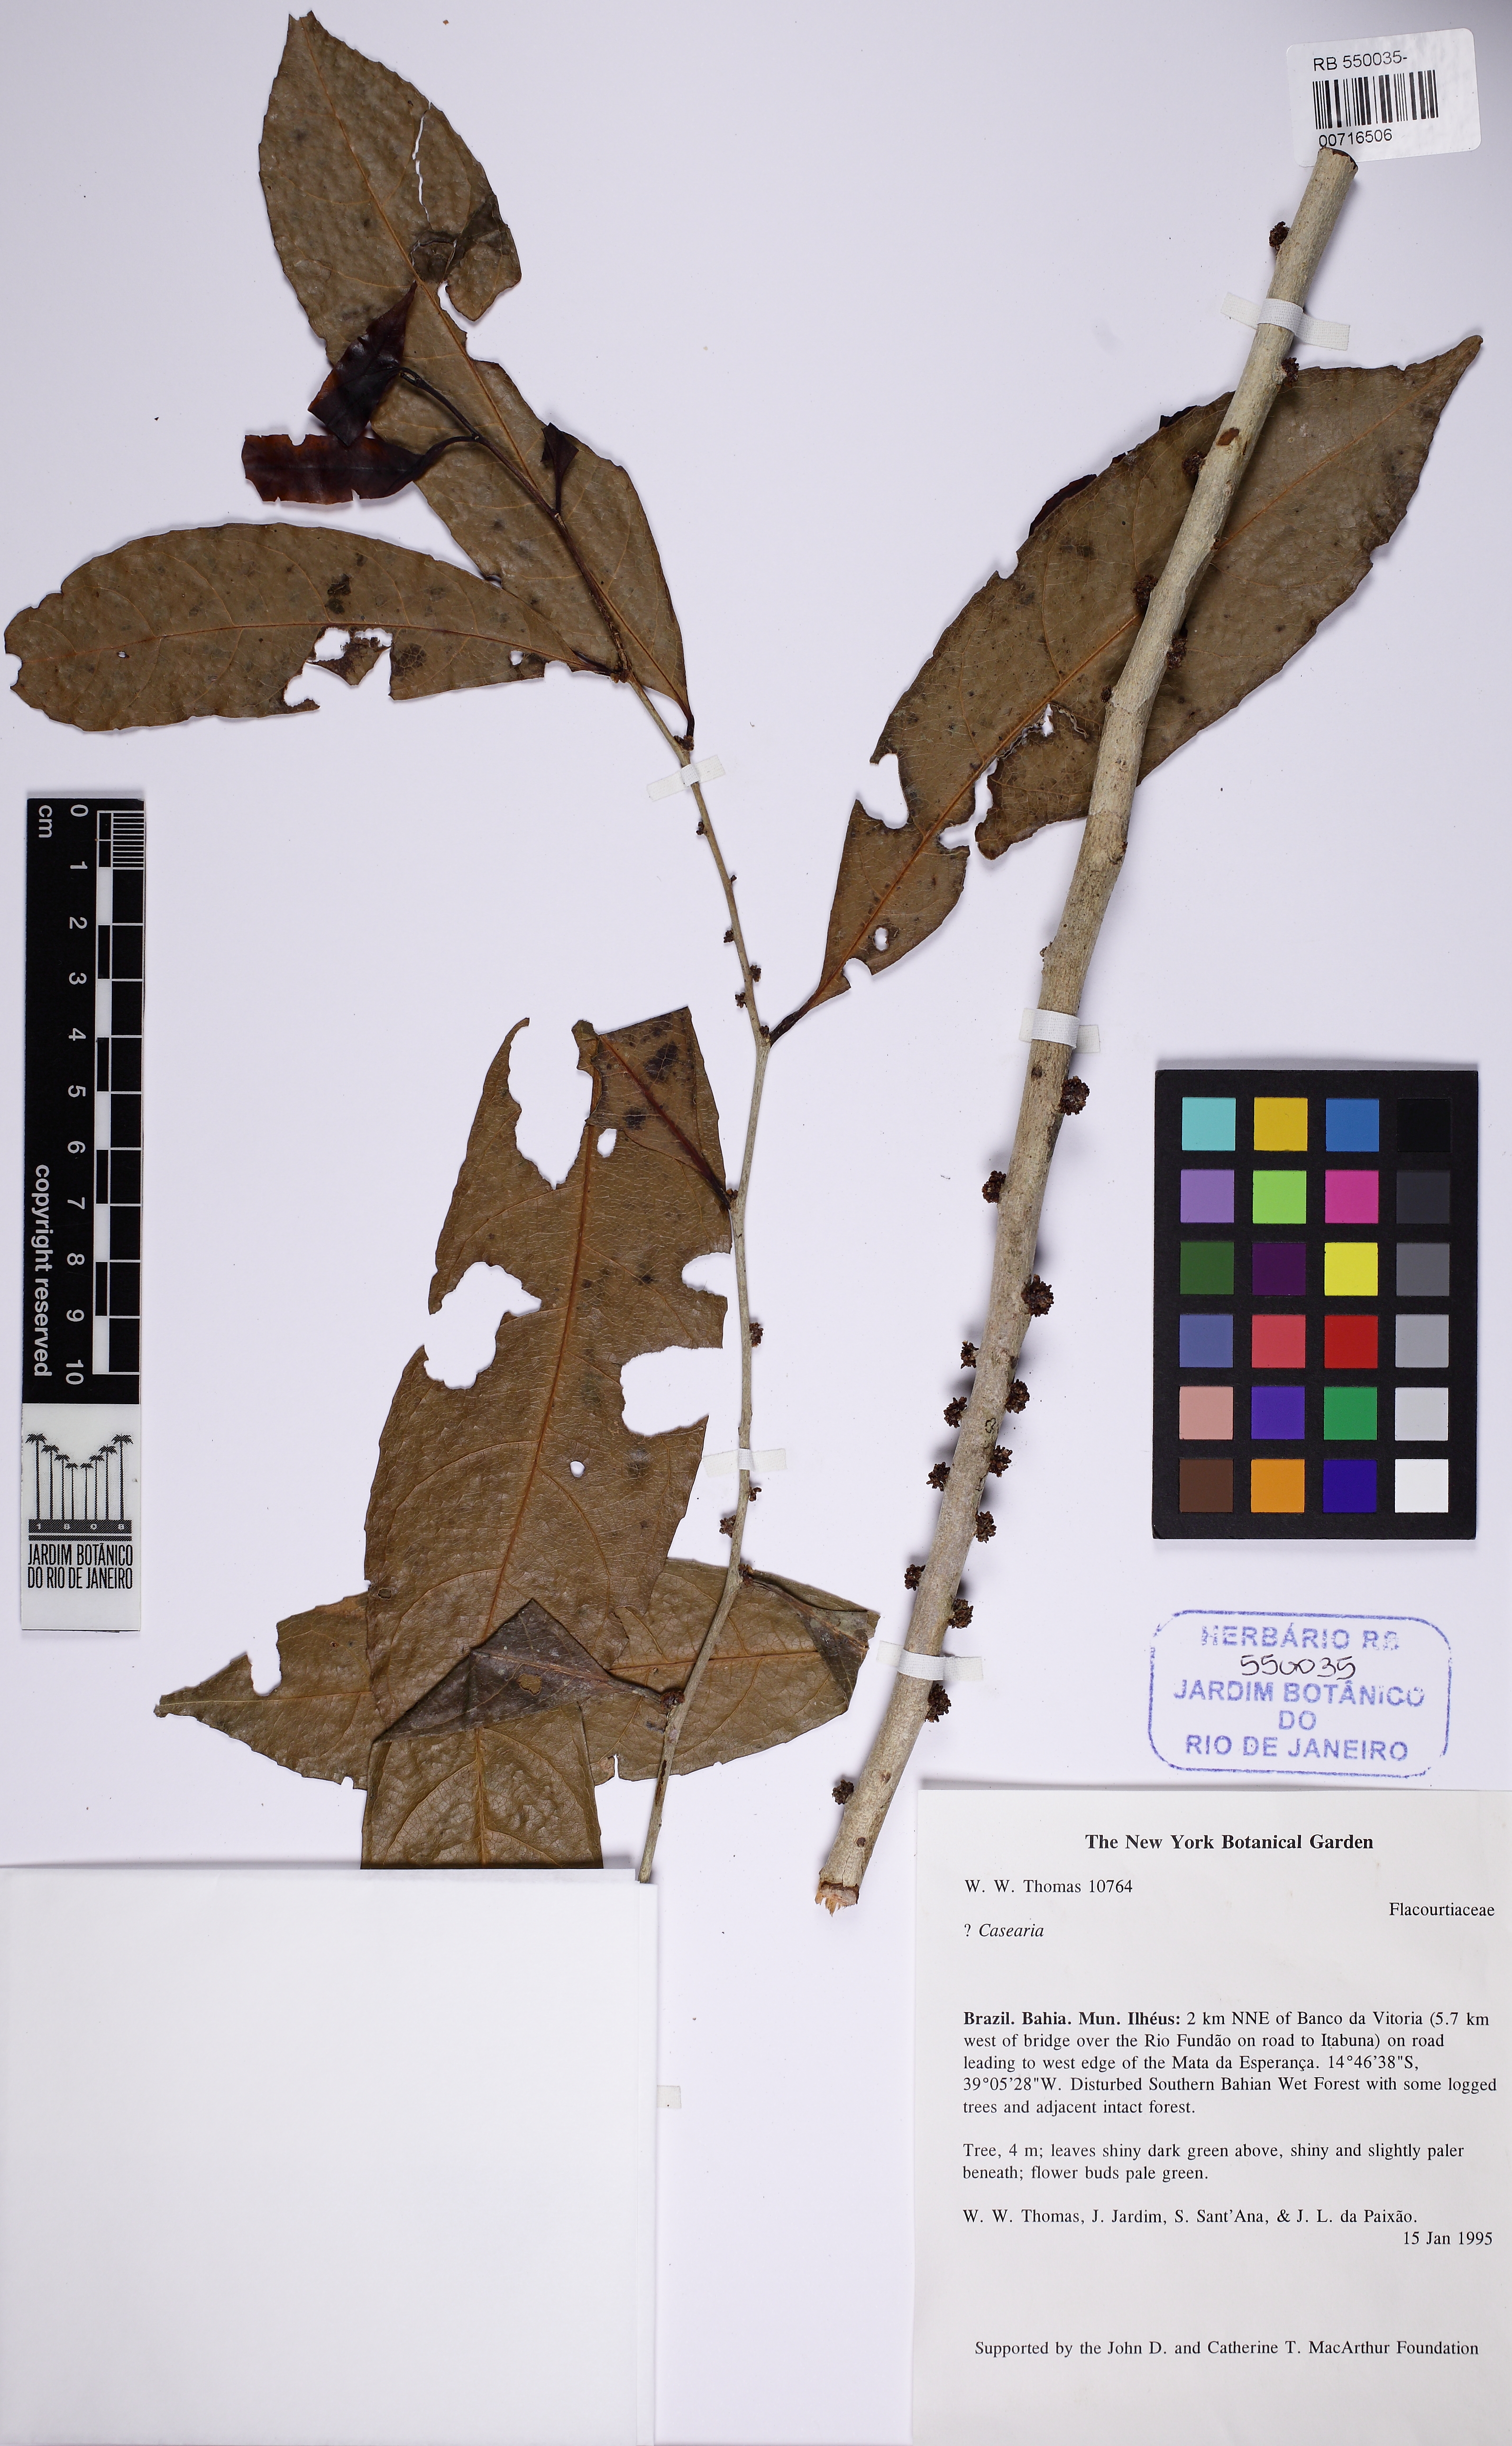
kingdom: Plantae
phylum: Tracheophyta
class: Magnoliopsida
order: Malpighiales
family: Salicaceae
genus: Casearia
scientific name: Casearia
